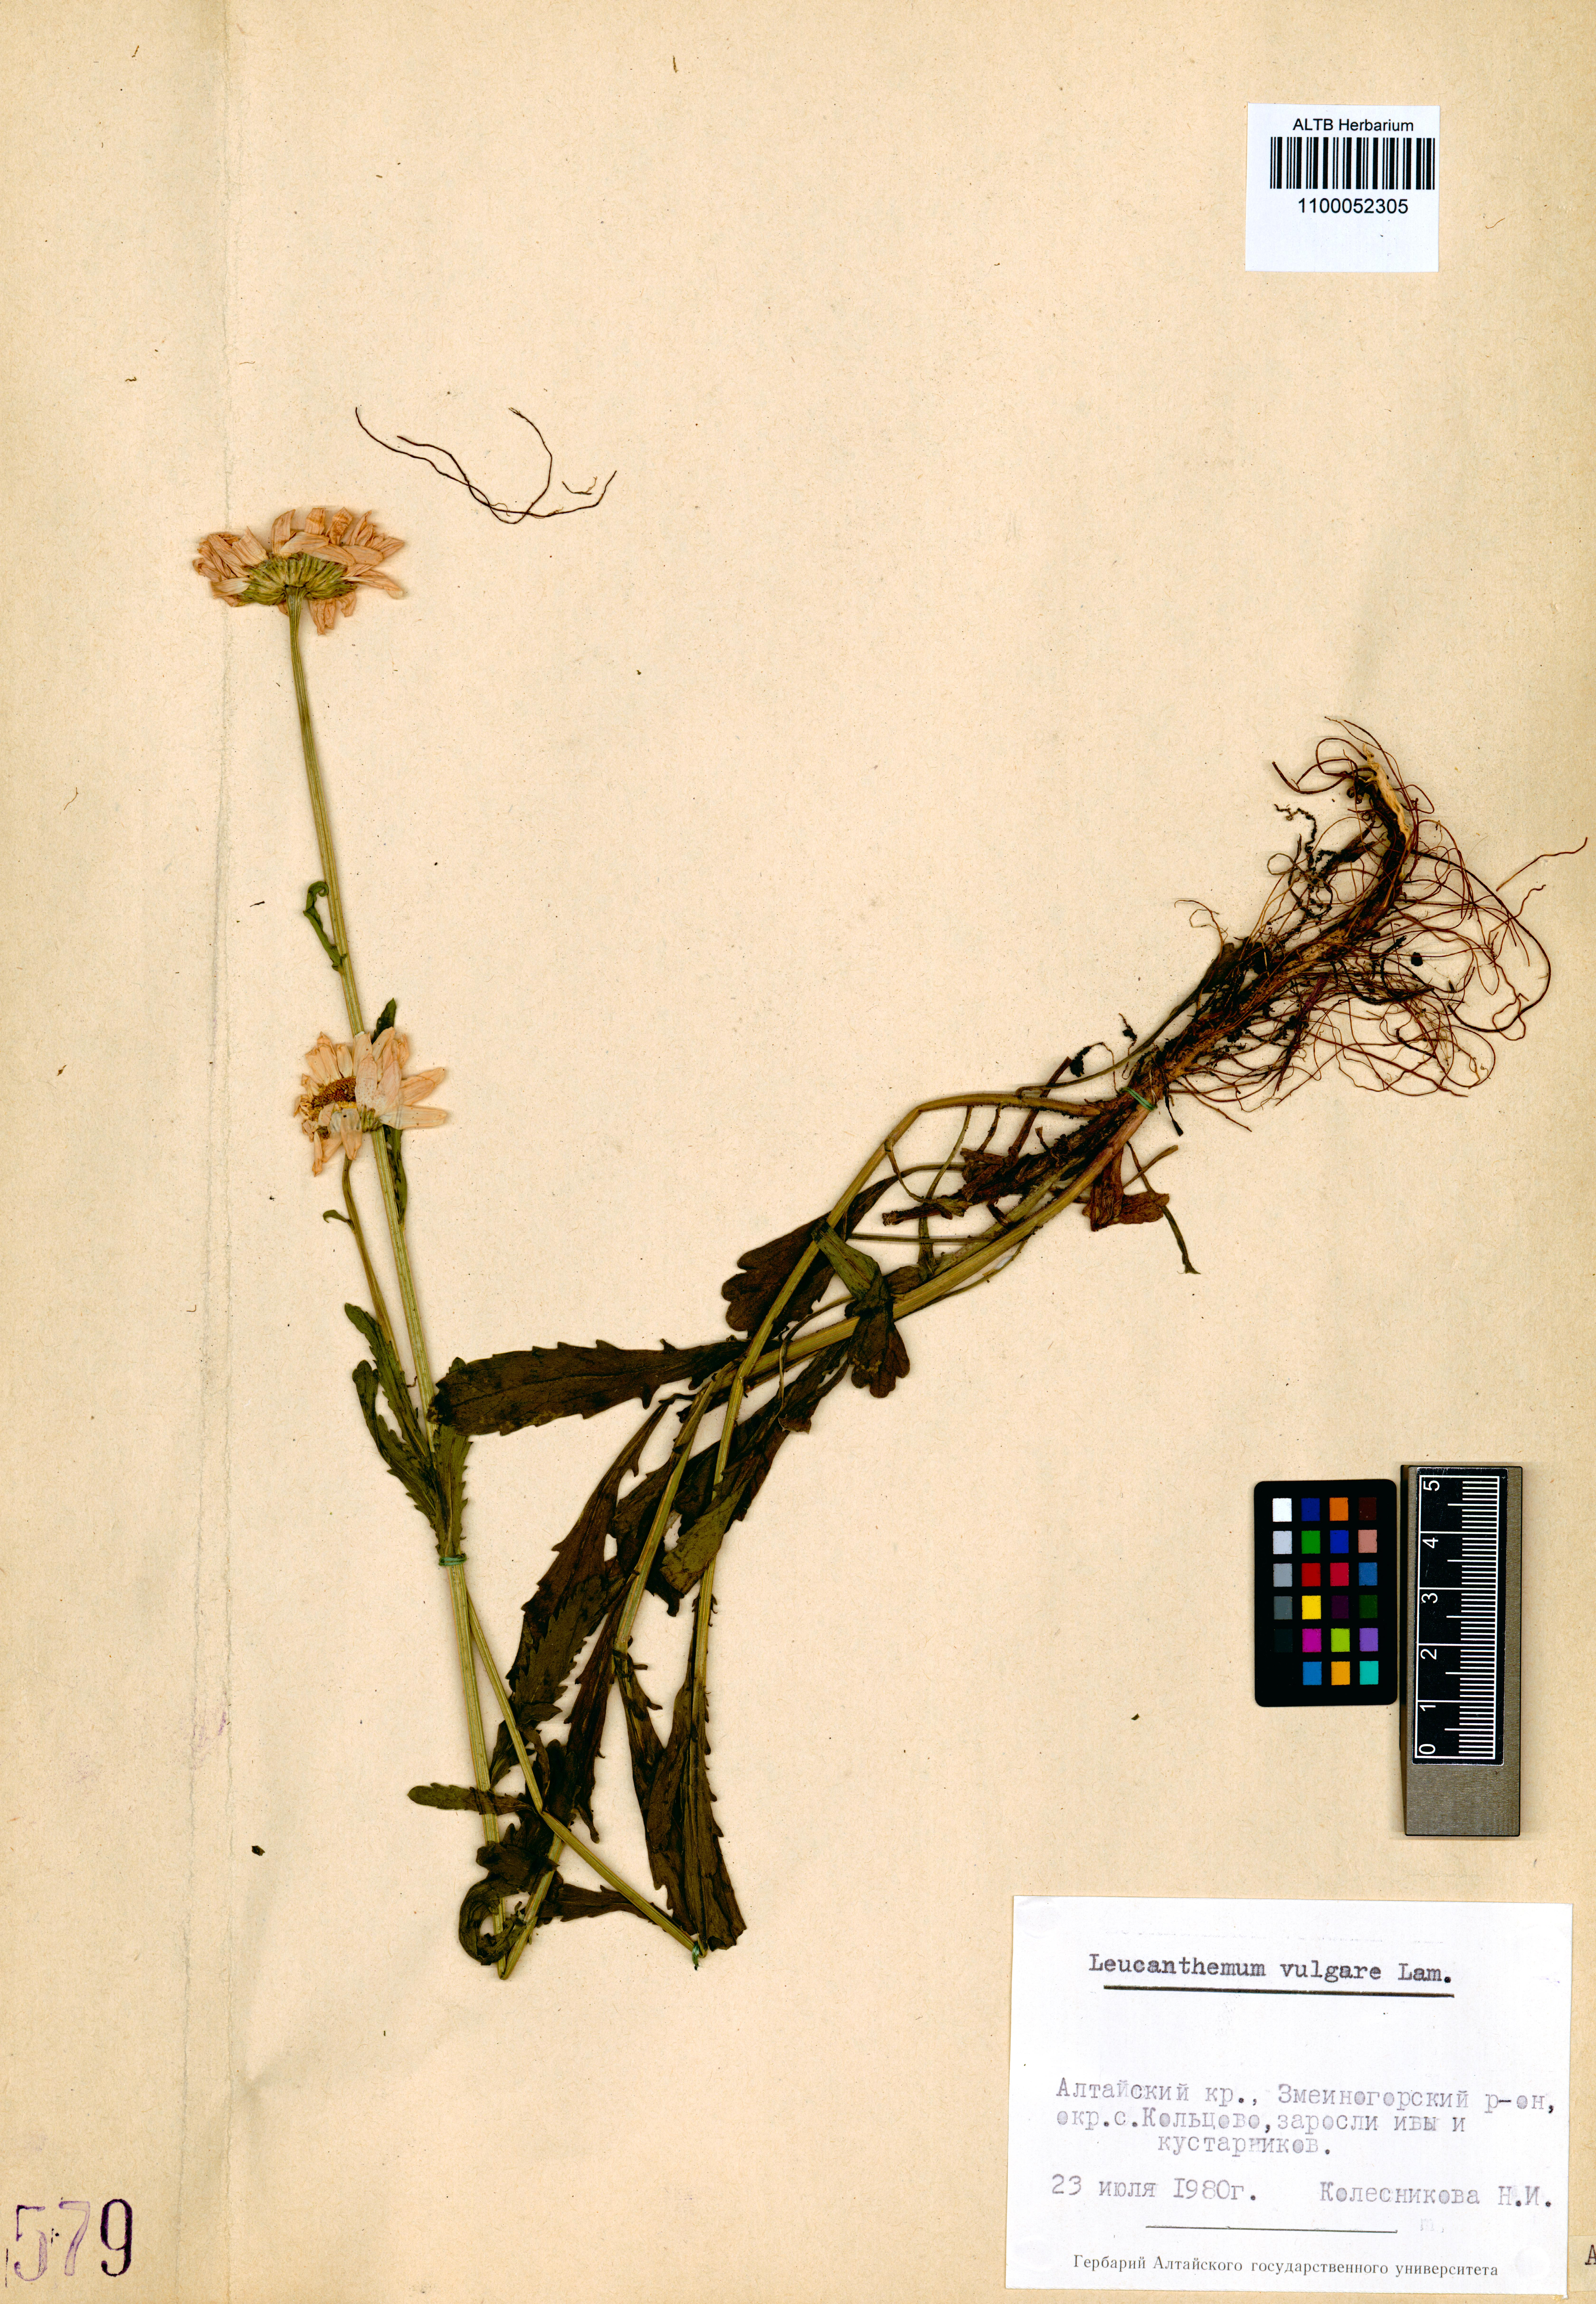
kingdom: Plantae
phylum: Tracheophyta
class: Magnoliopsida
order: Asterales
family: Asteraceae
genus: Leucanthemum
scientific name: Leucanthemum vulgare
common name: Oxeye daisy
